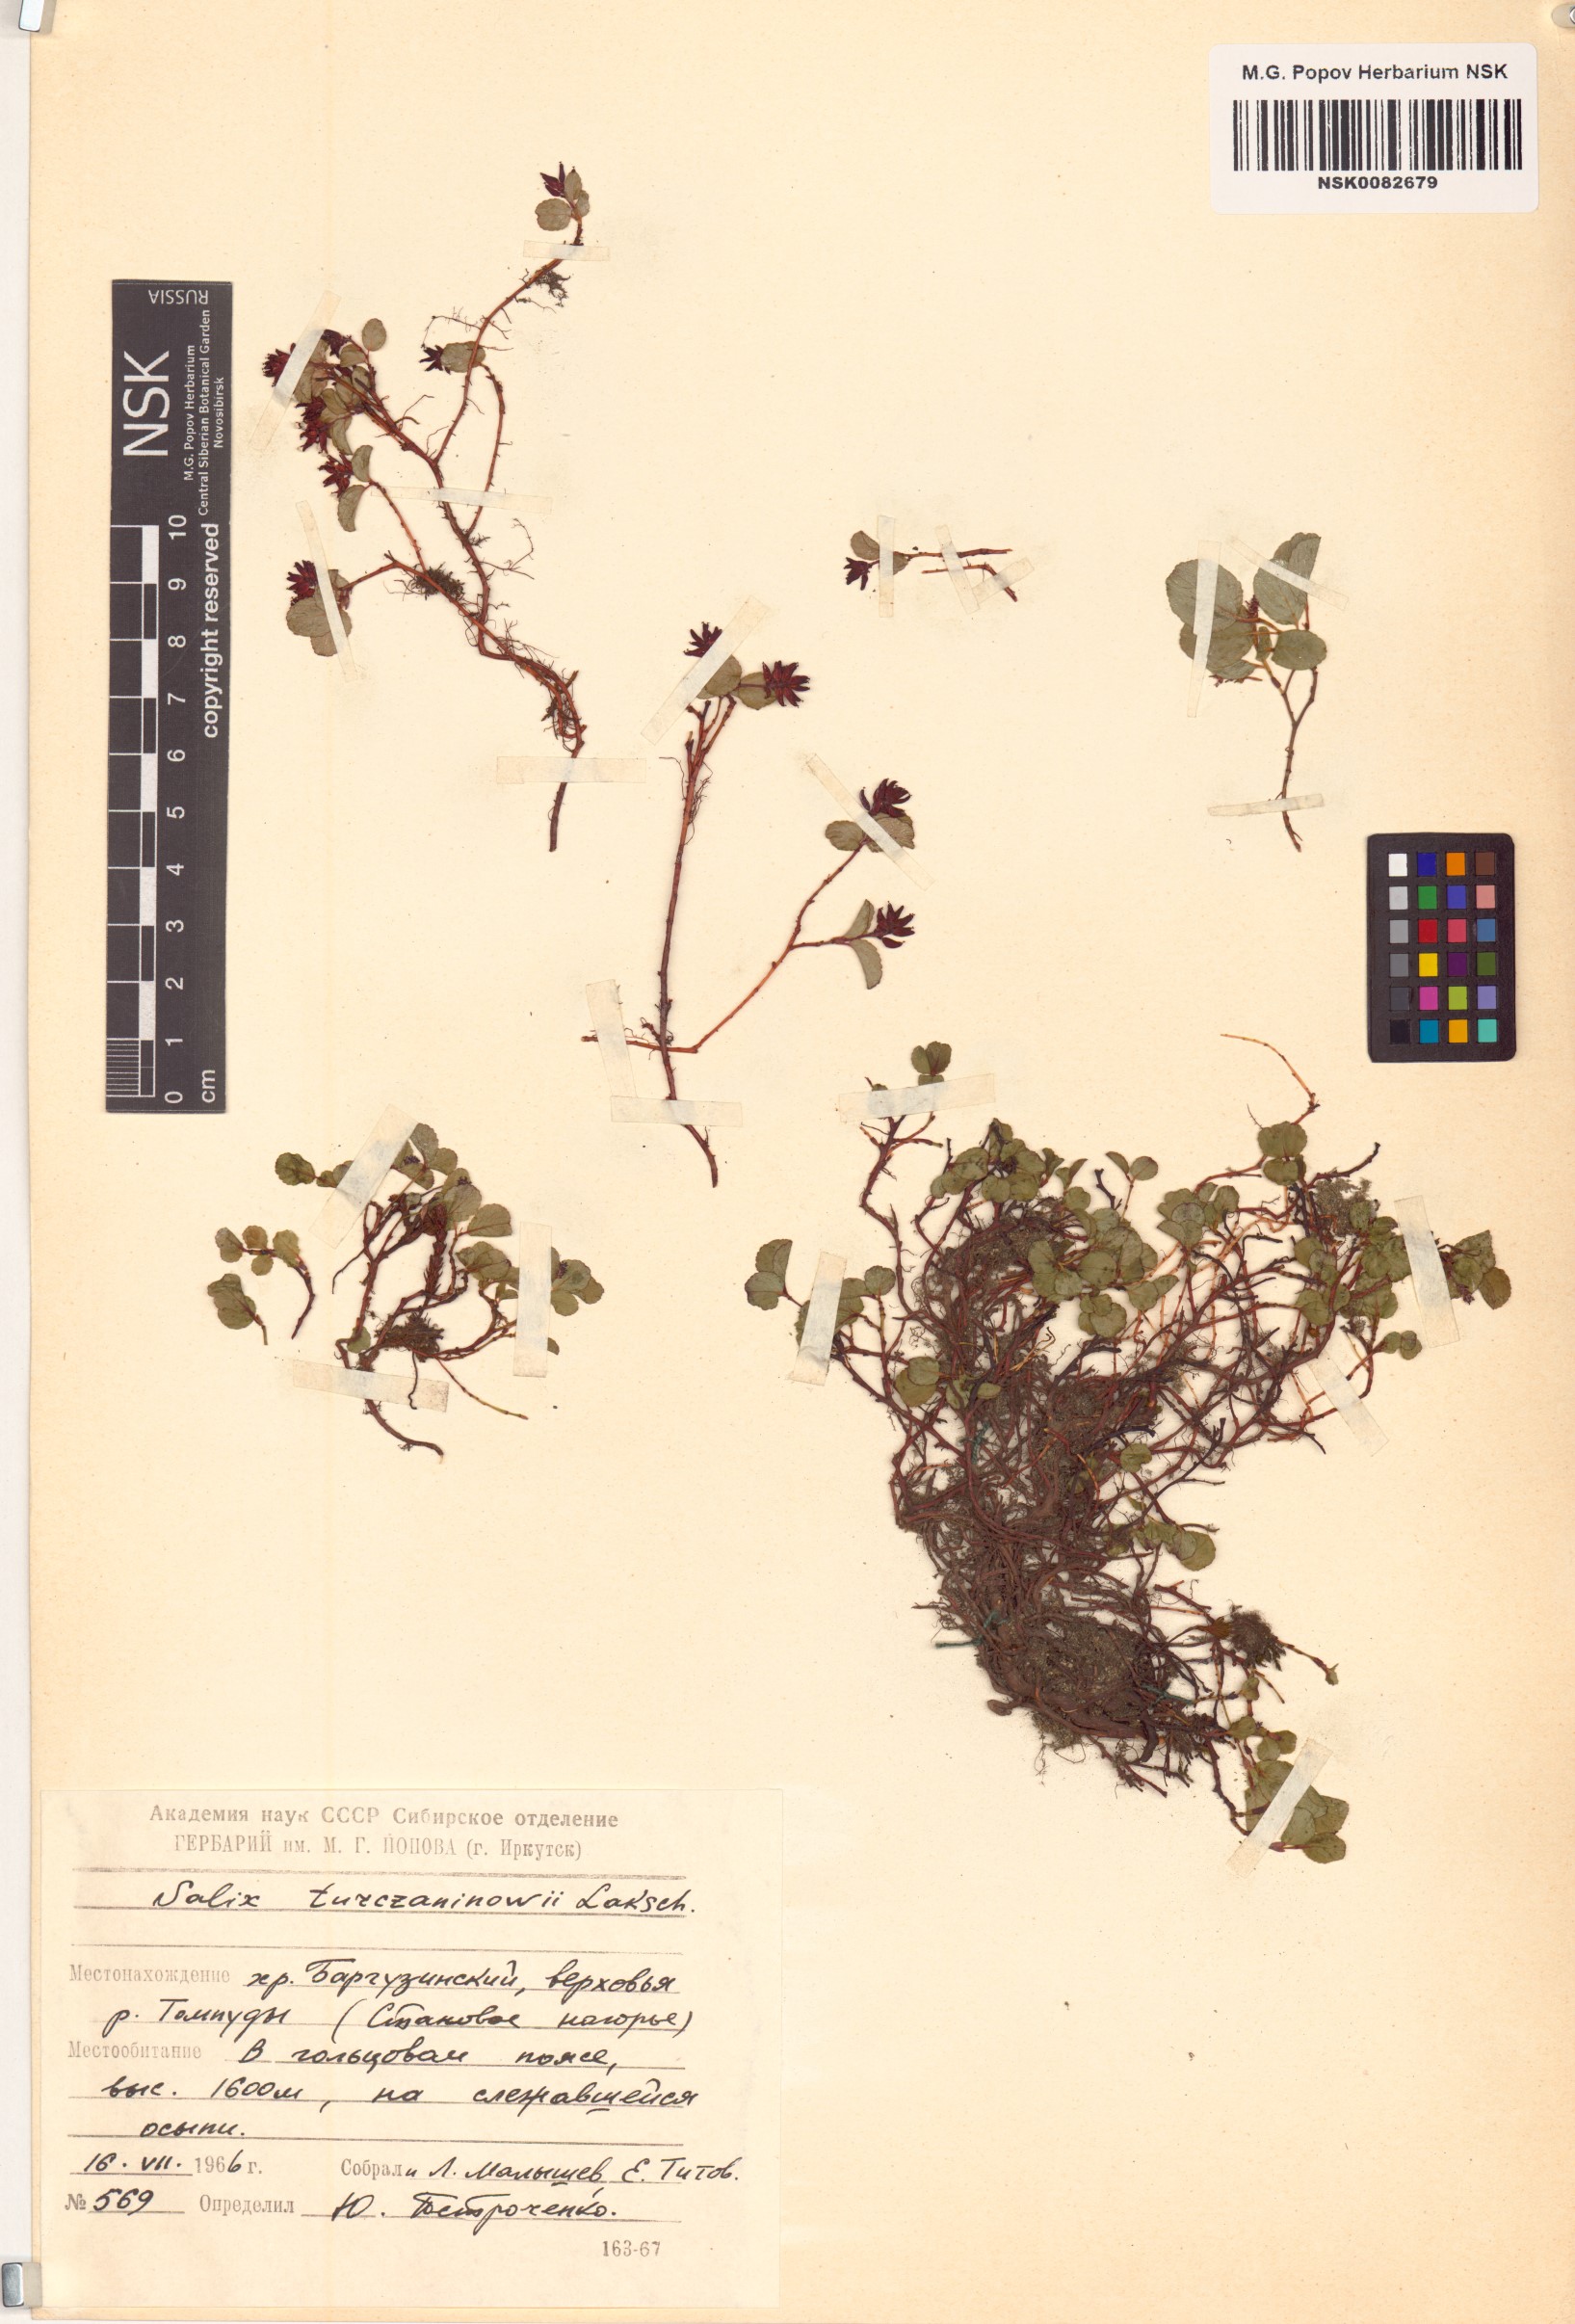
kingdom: Plantae
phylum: Tracheophyta
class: Magnoliopsida
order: Malpighiales
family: Salicaceae
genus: Salix
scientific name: Salix turczaninowii
